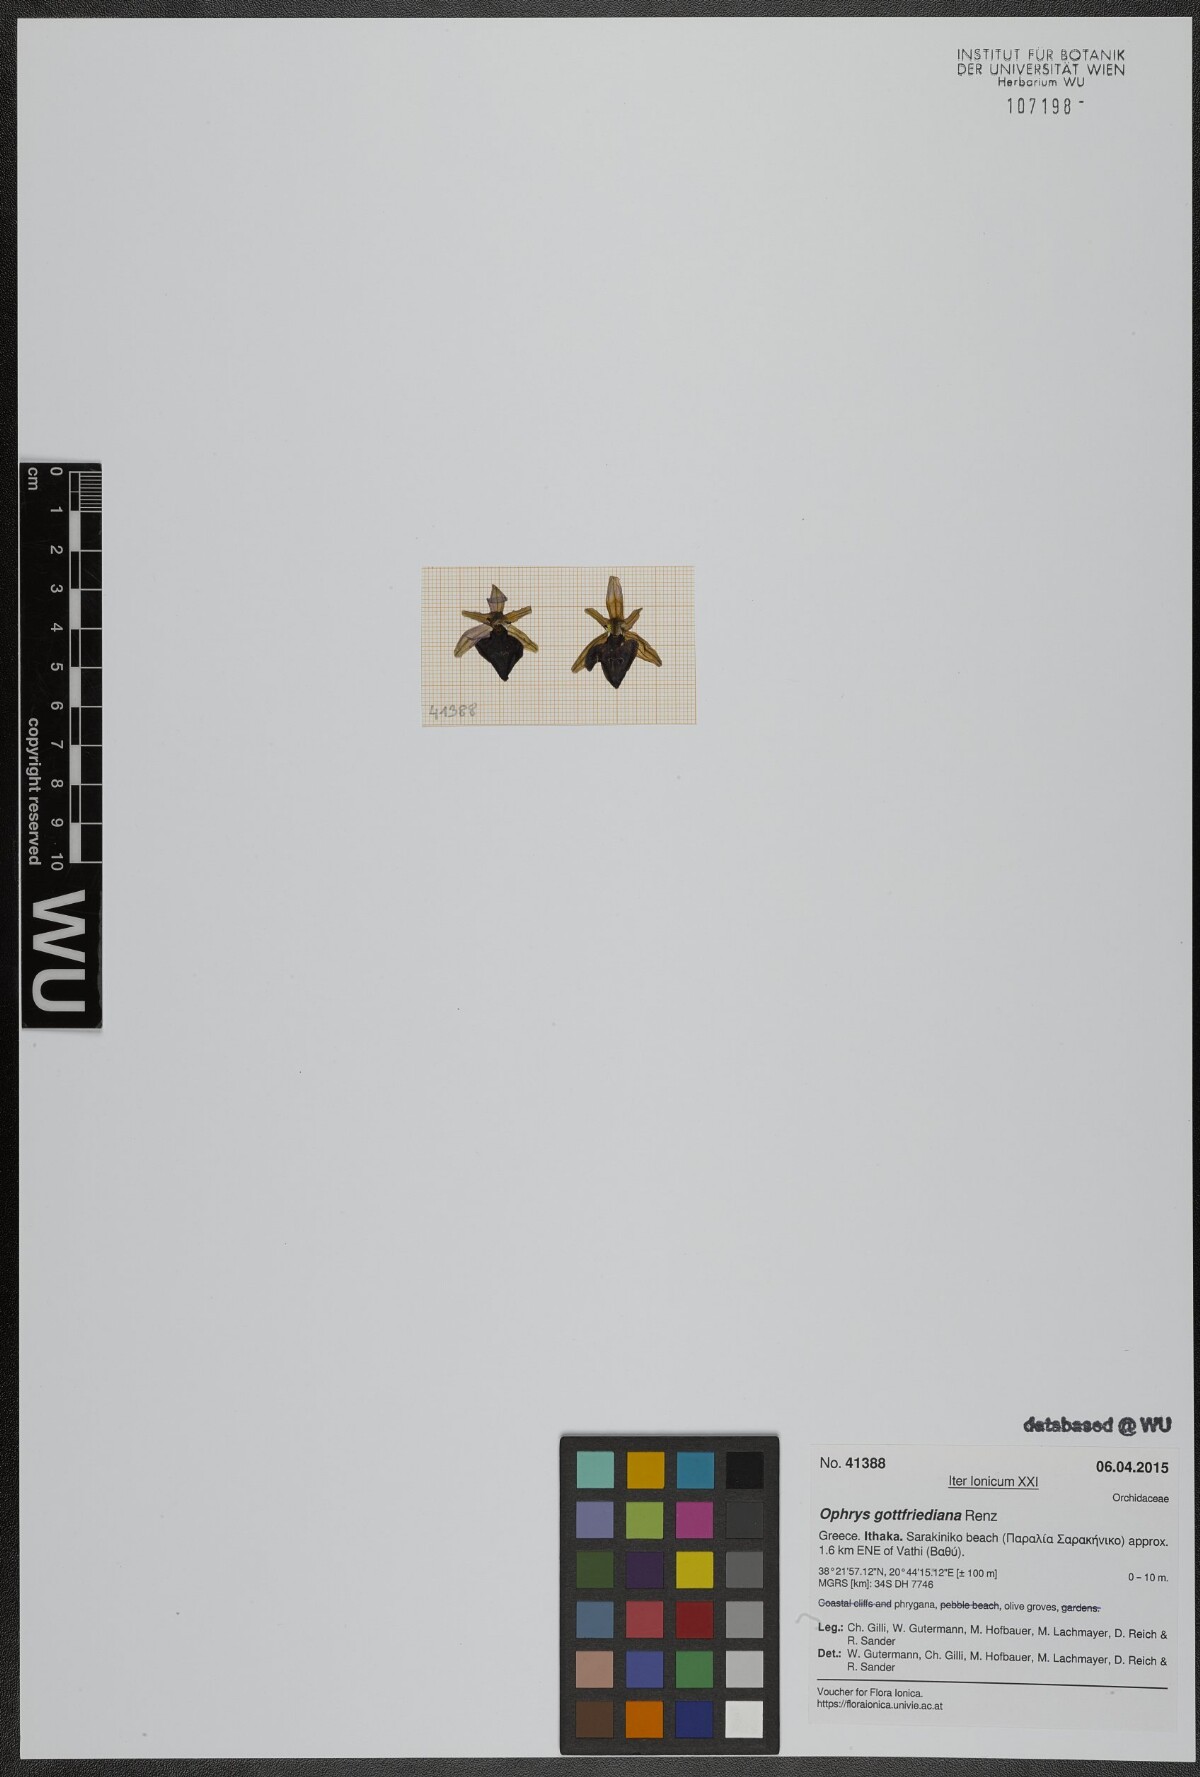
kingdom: Plantae
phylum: Tracheophyta
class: Liliopsida
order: Asparagales
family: Orchidaceae
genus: Ophrys
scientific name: Ophrys ferrum-equinum
